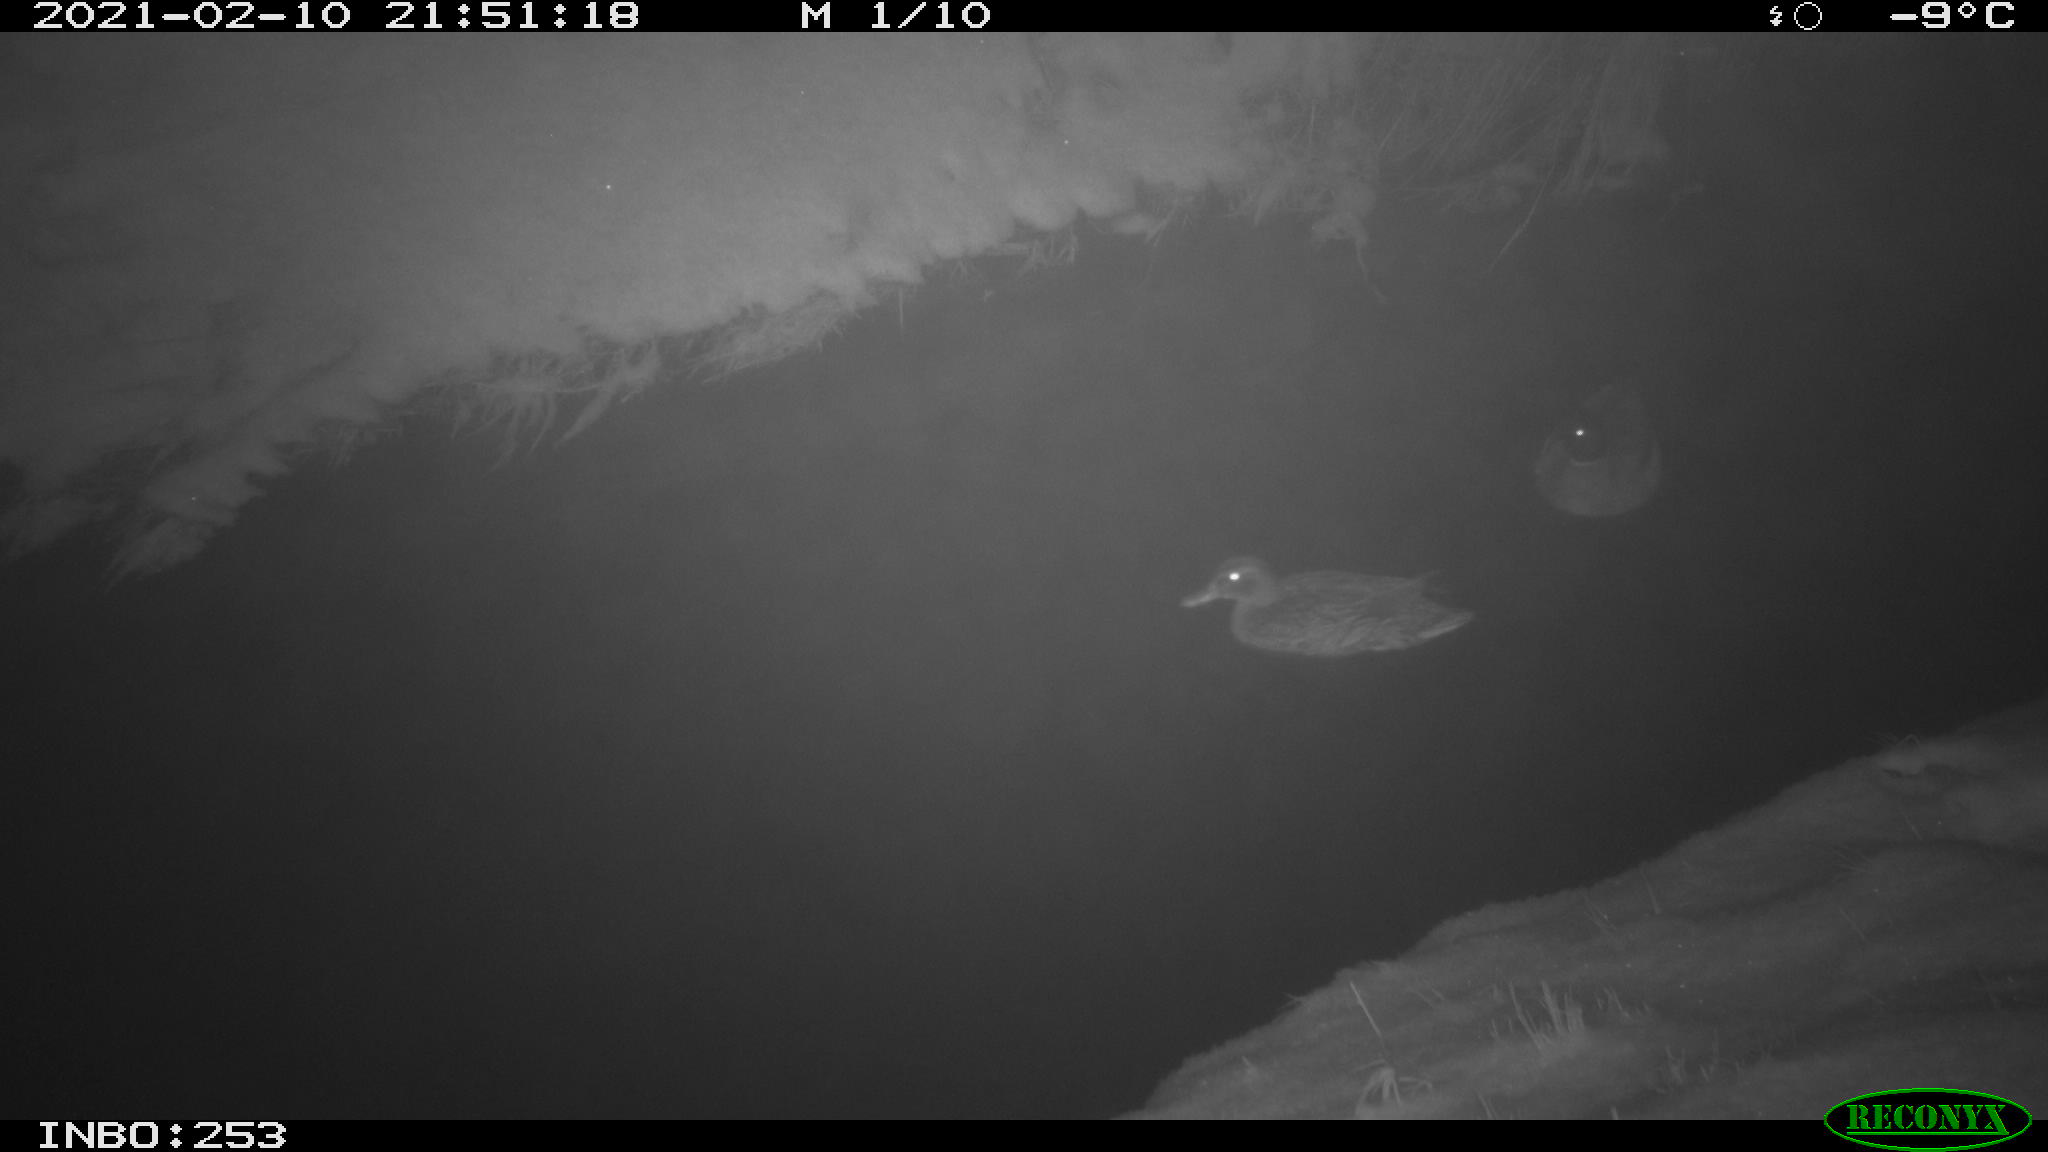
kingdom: Animalia
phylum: Chordata
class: Aves
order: Anseriformes
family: Anatidae
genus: Anas
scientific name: Anas platyrhynchos
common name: Mallard
